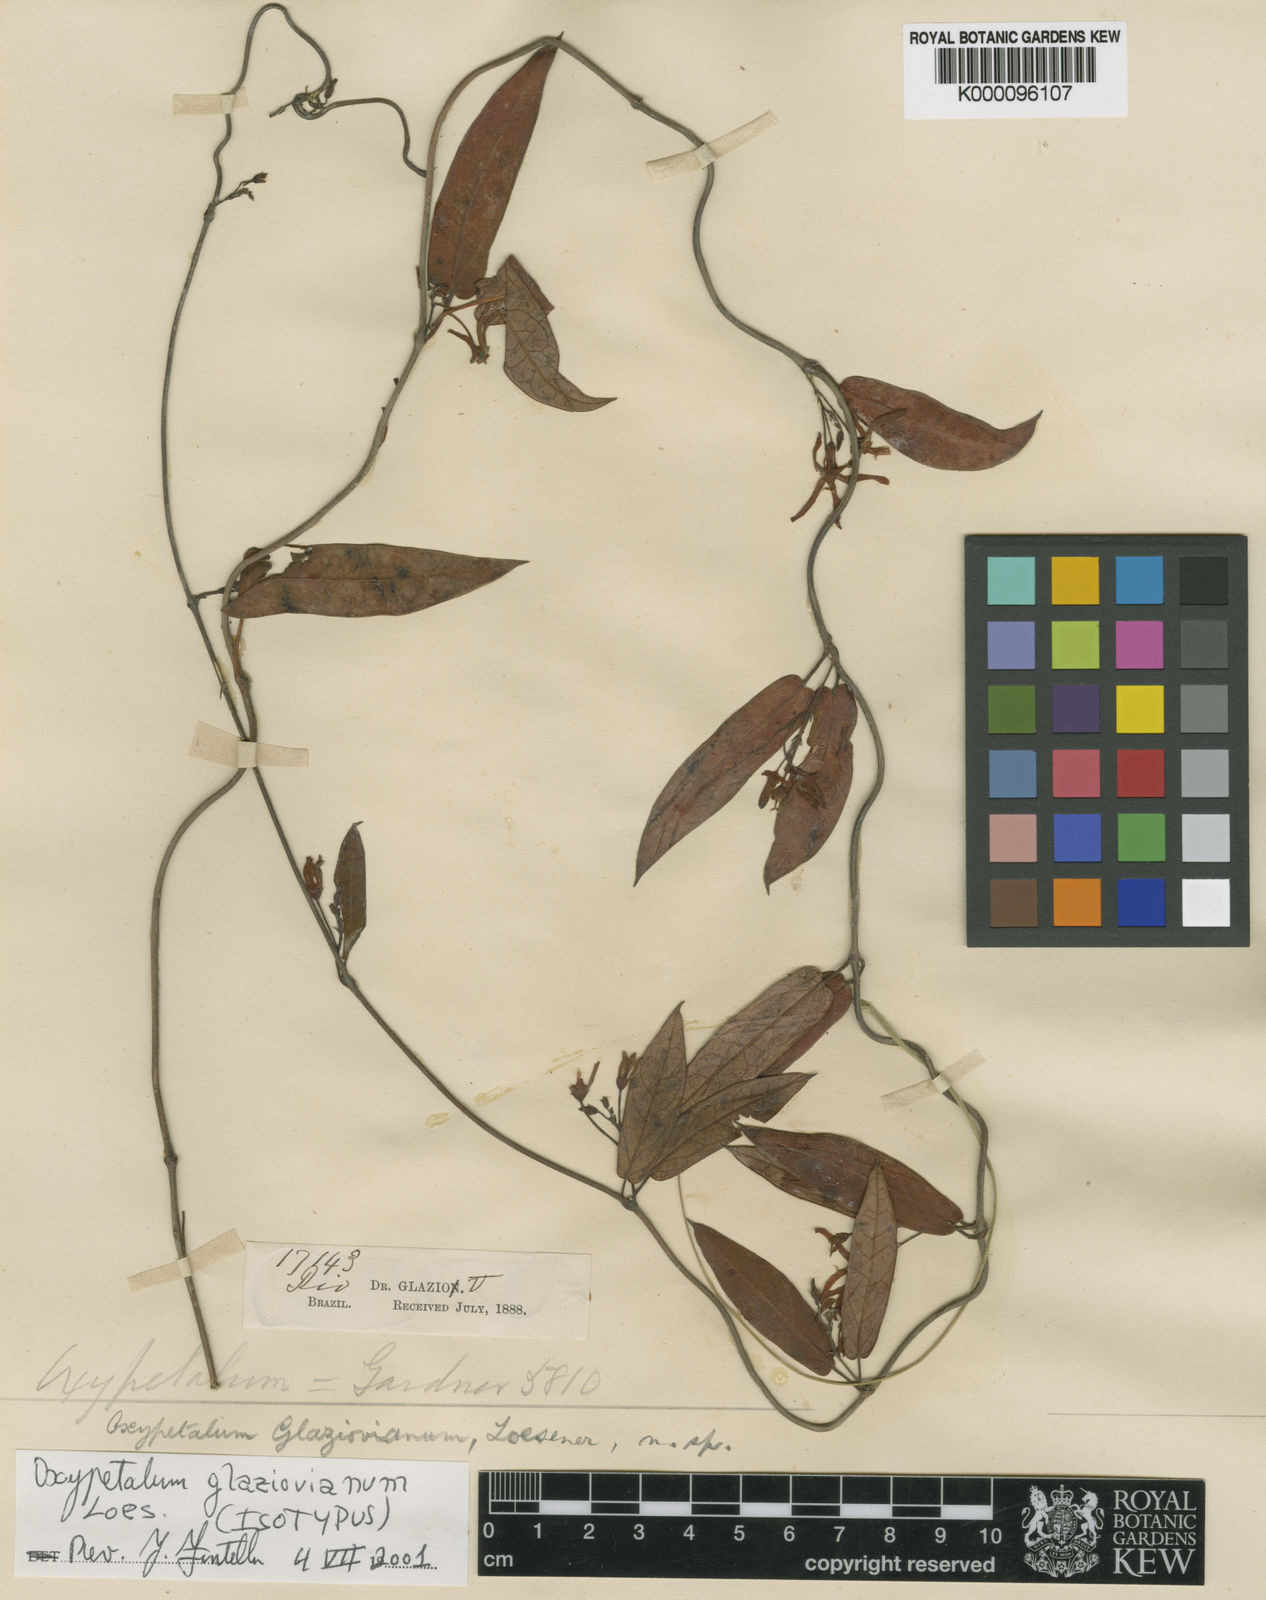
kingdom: Plantae
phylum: Tracheophyta
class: Magnoliopsida
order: Gentianales
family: Apocynaceae
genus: Oxypetalum
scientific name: Oxypetalum insigne
